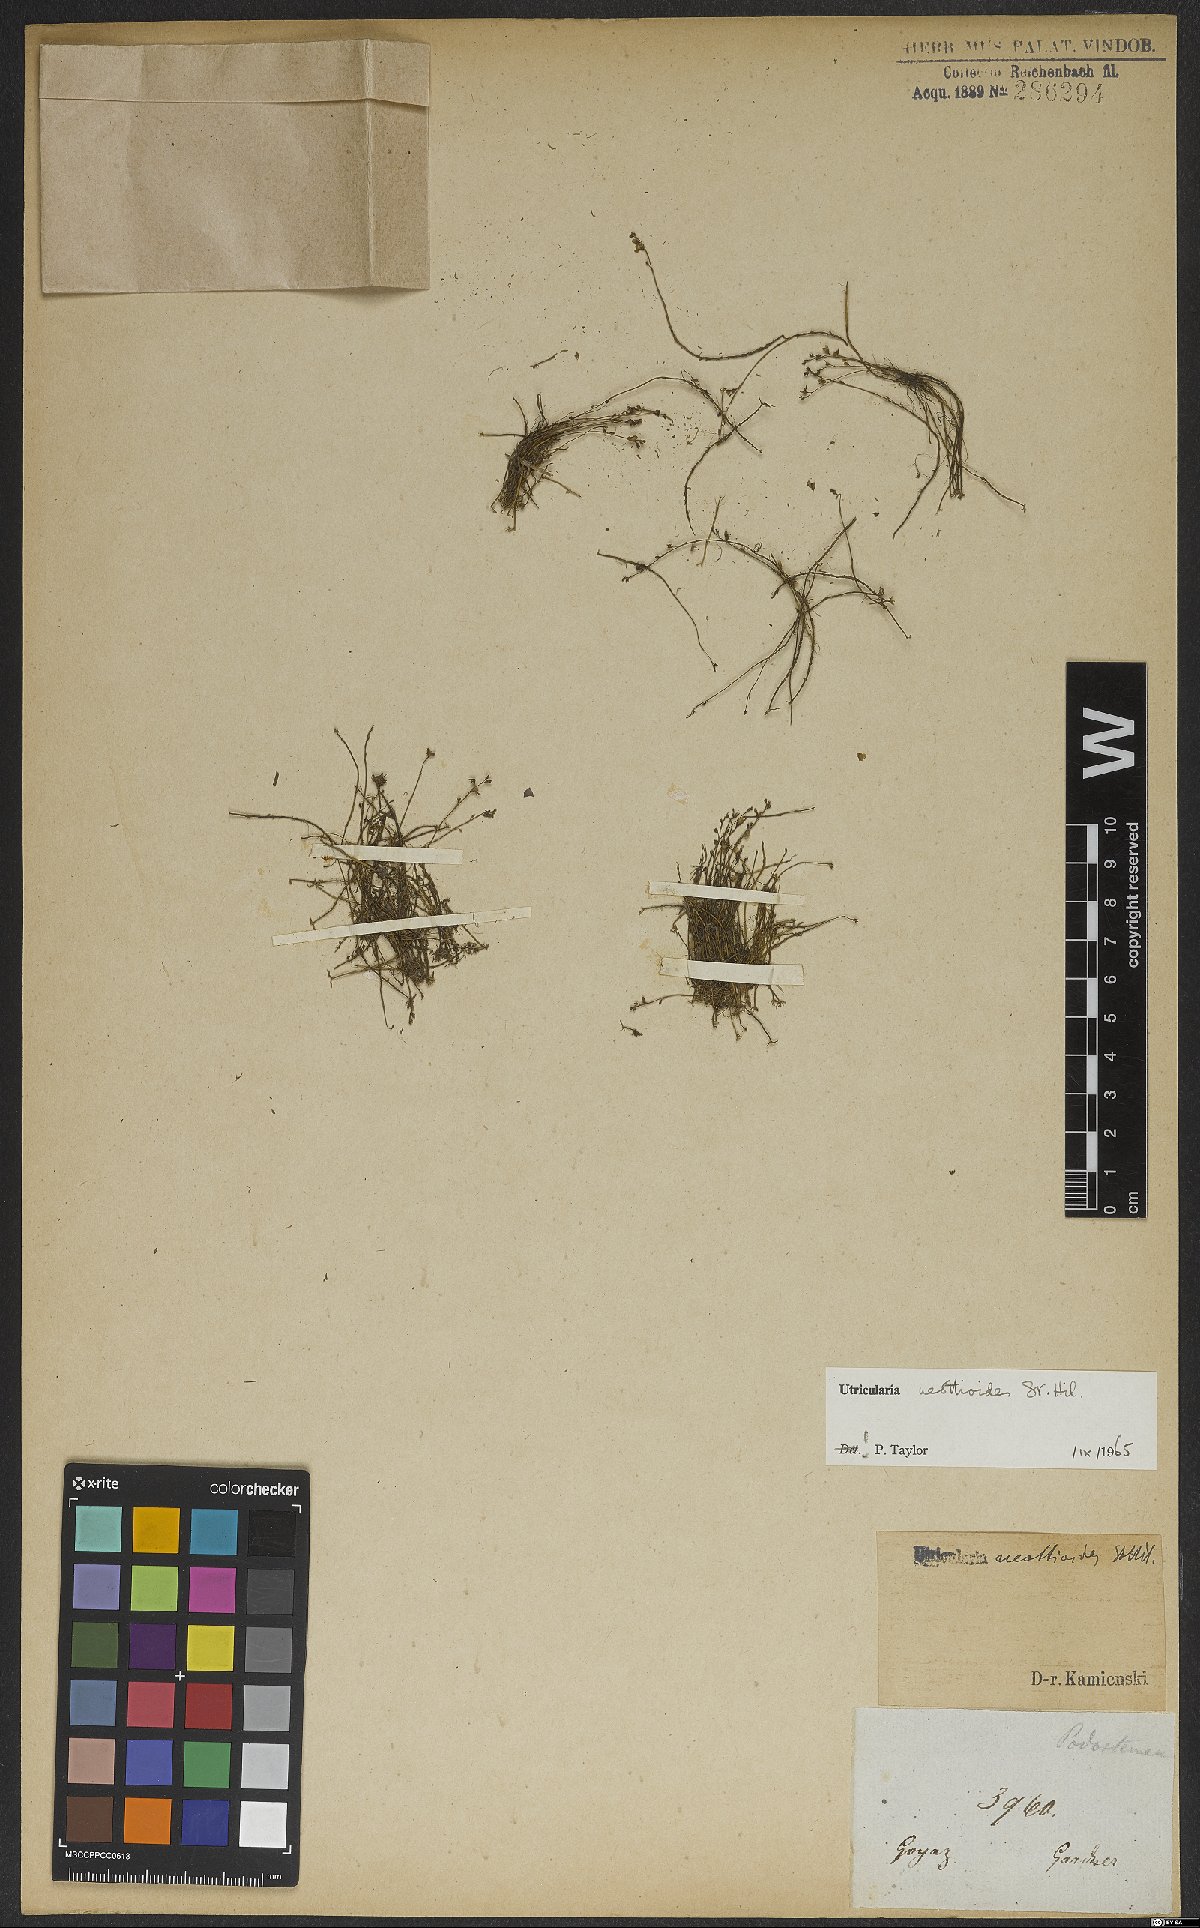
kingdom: Plantae
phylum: Tracheophyta
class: Magnoliopsida
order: Lamiales
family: Lentibulariaceae
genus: Utricularia
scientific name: Utricularia neottioides
